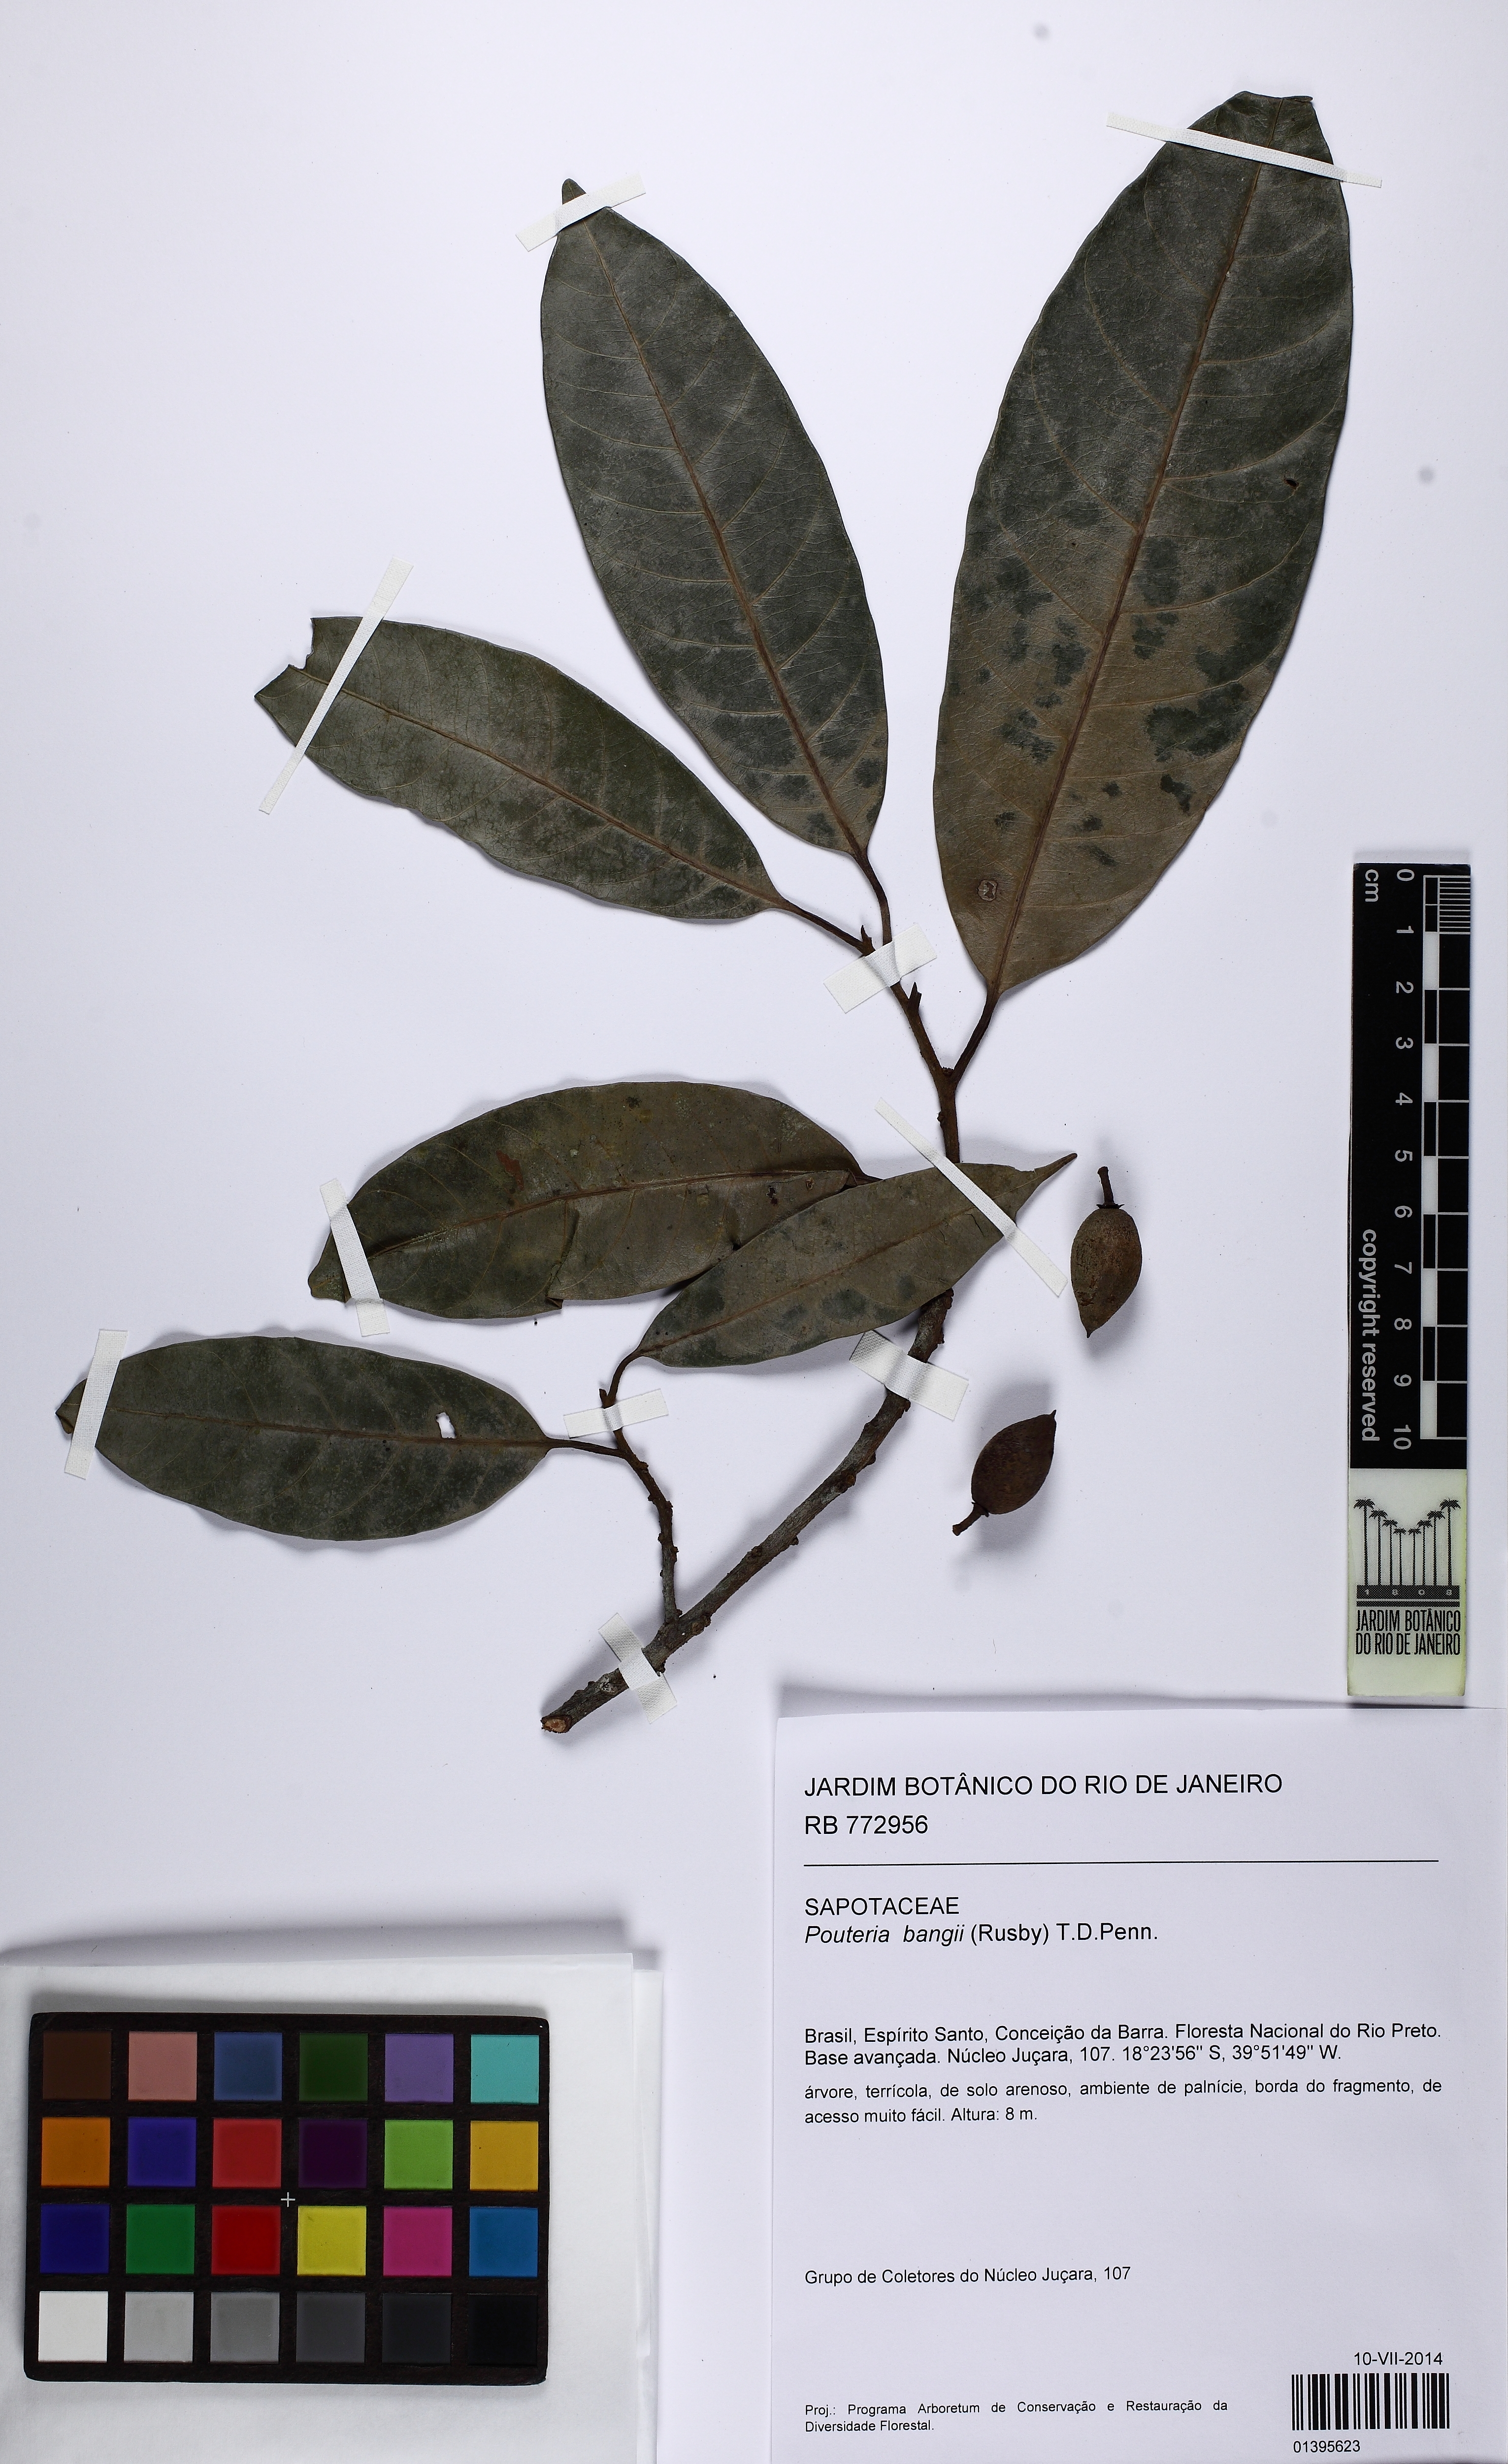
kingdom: Plantae
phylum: Tracheophyta
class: Magnoliopsida
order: Ericales
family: Sapotaceae
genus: Pouteria
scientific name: Pouteria bangii
